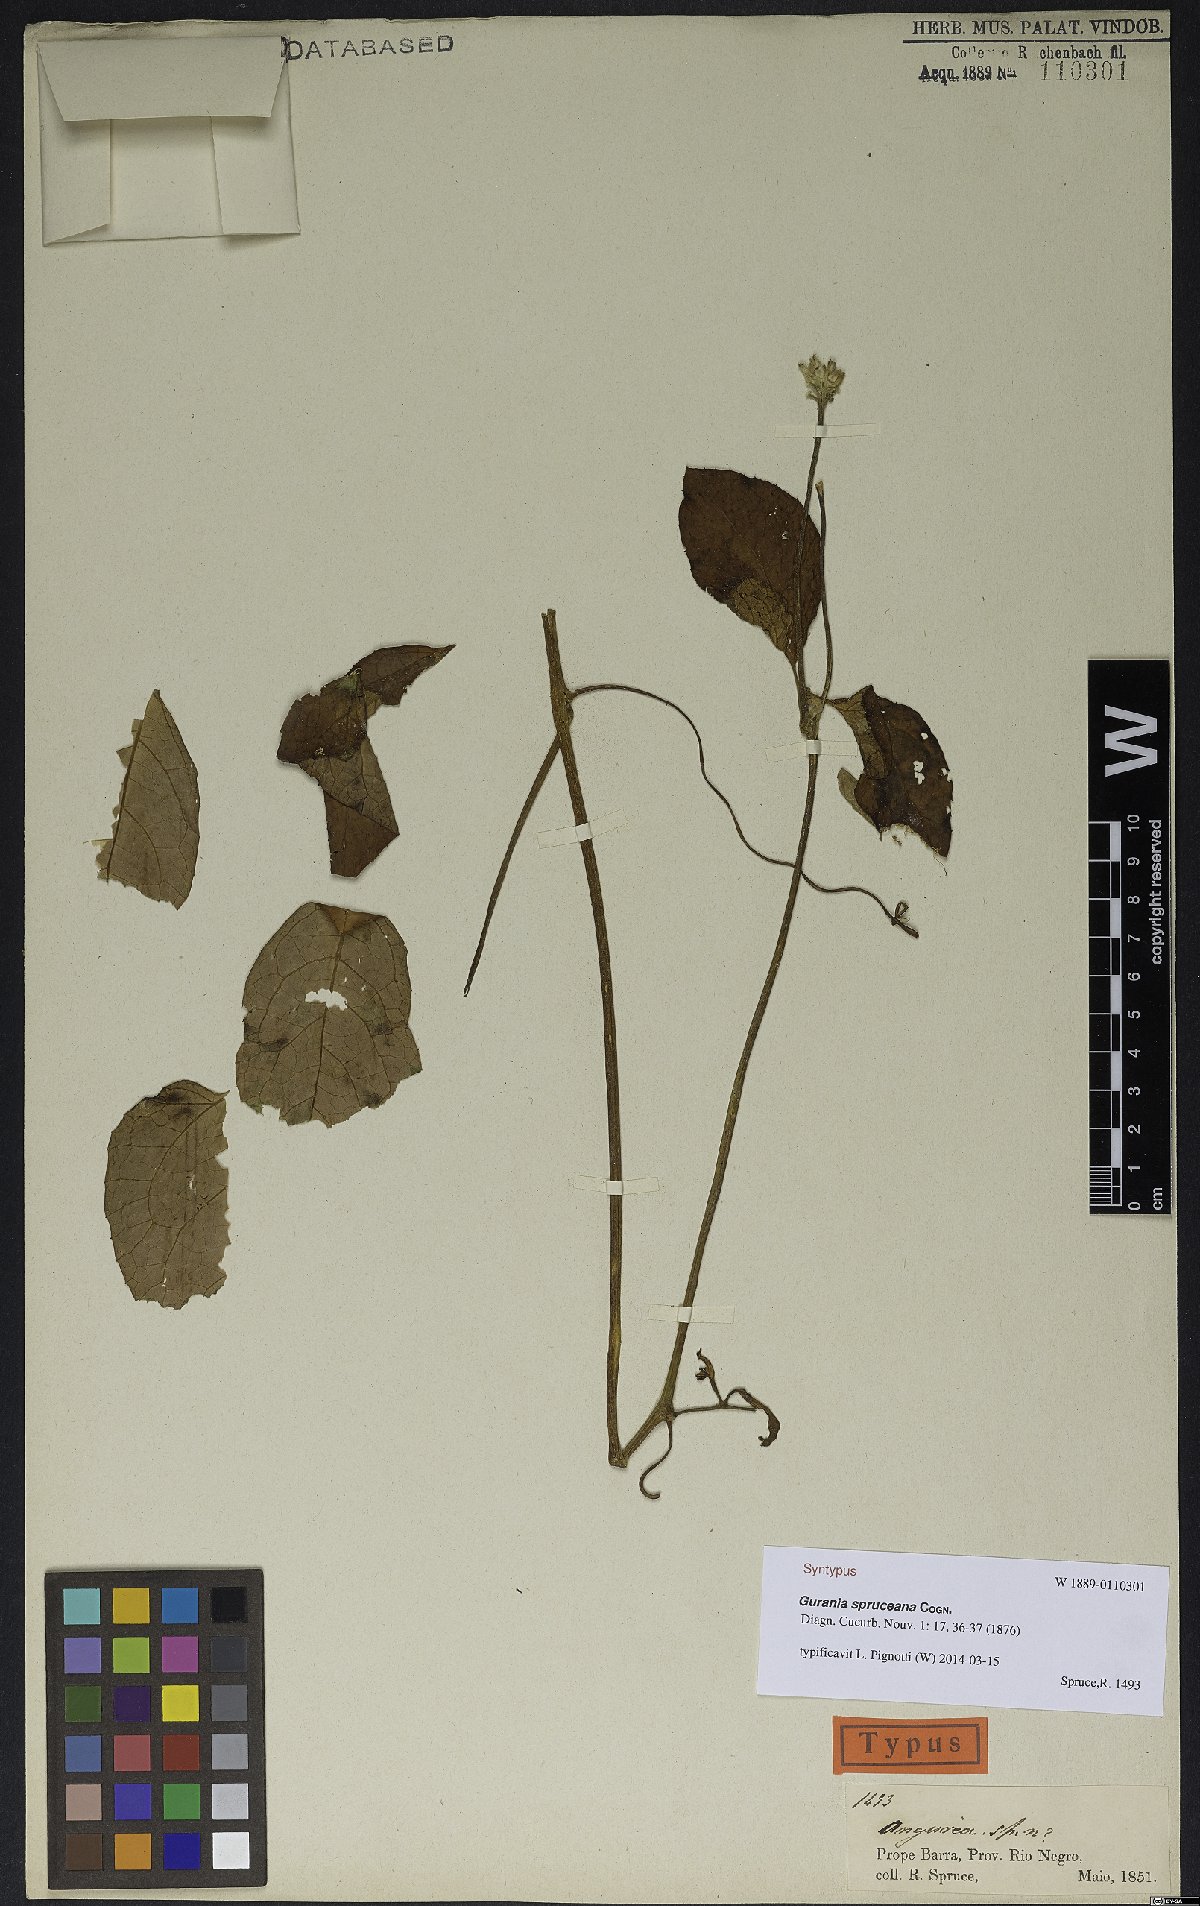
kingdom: Plantae
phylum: Tracheophyta
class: Magnoliopsida
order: Cucurbitales
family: Cucurbitaceae
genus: Gurania
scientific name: Gurania spruceana
